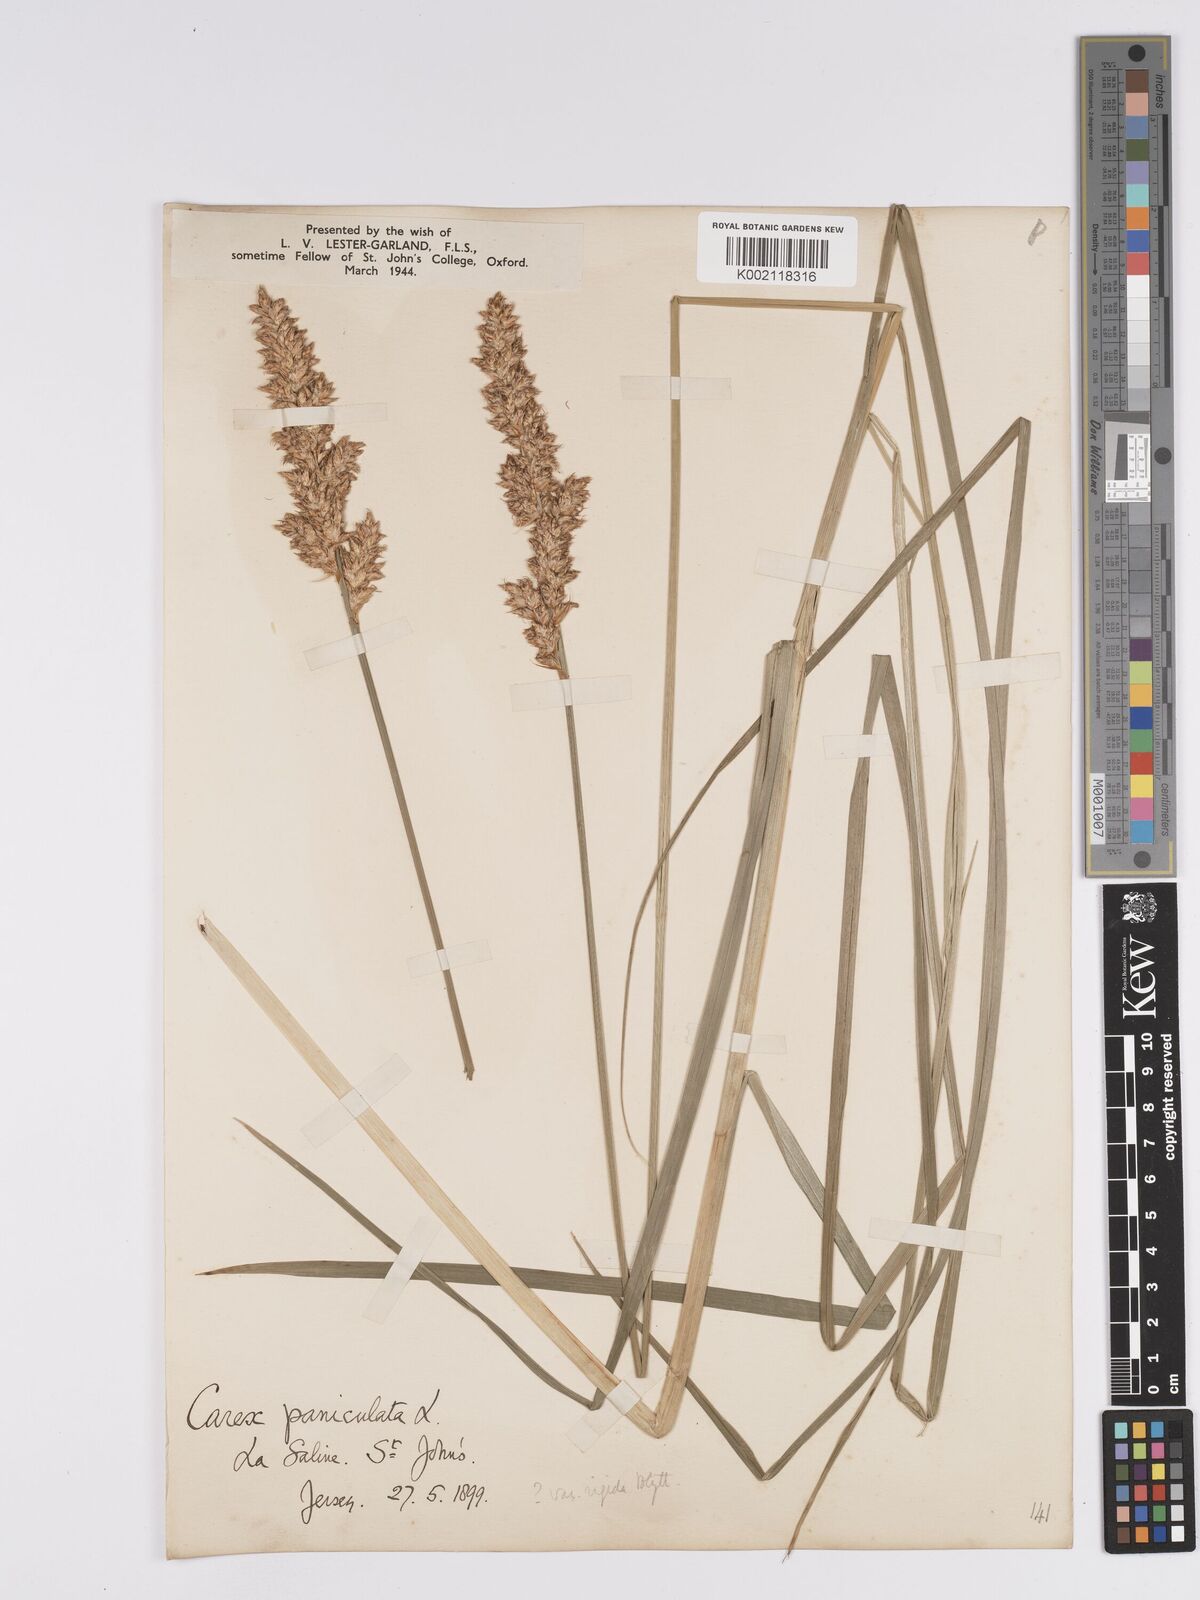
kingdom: Plantae
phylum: Tracheophyta
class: Liliopsida
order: Poales
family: Cyperaceae
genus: Carex
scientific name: Carex paniculata
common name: Greater tussock-sedge
